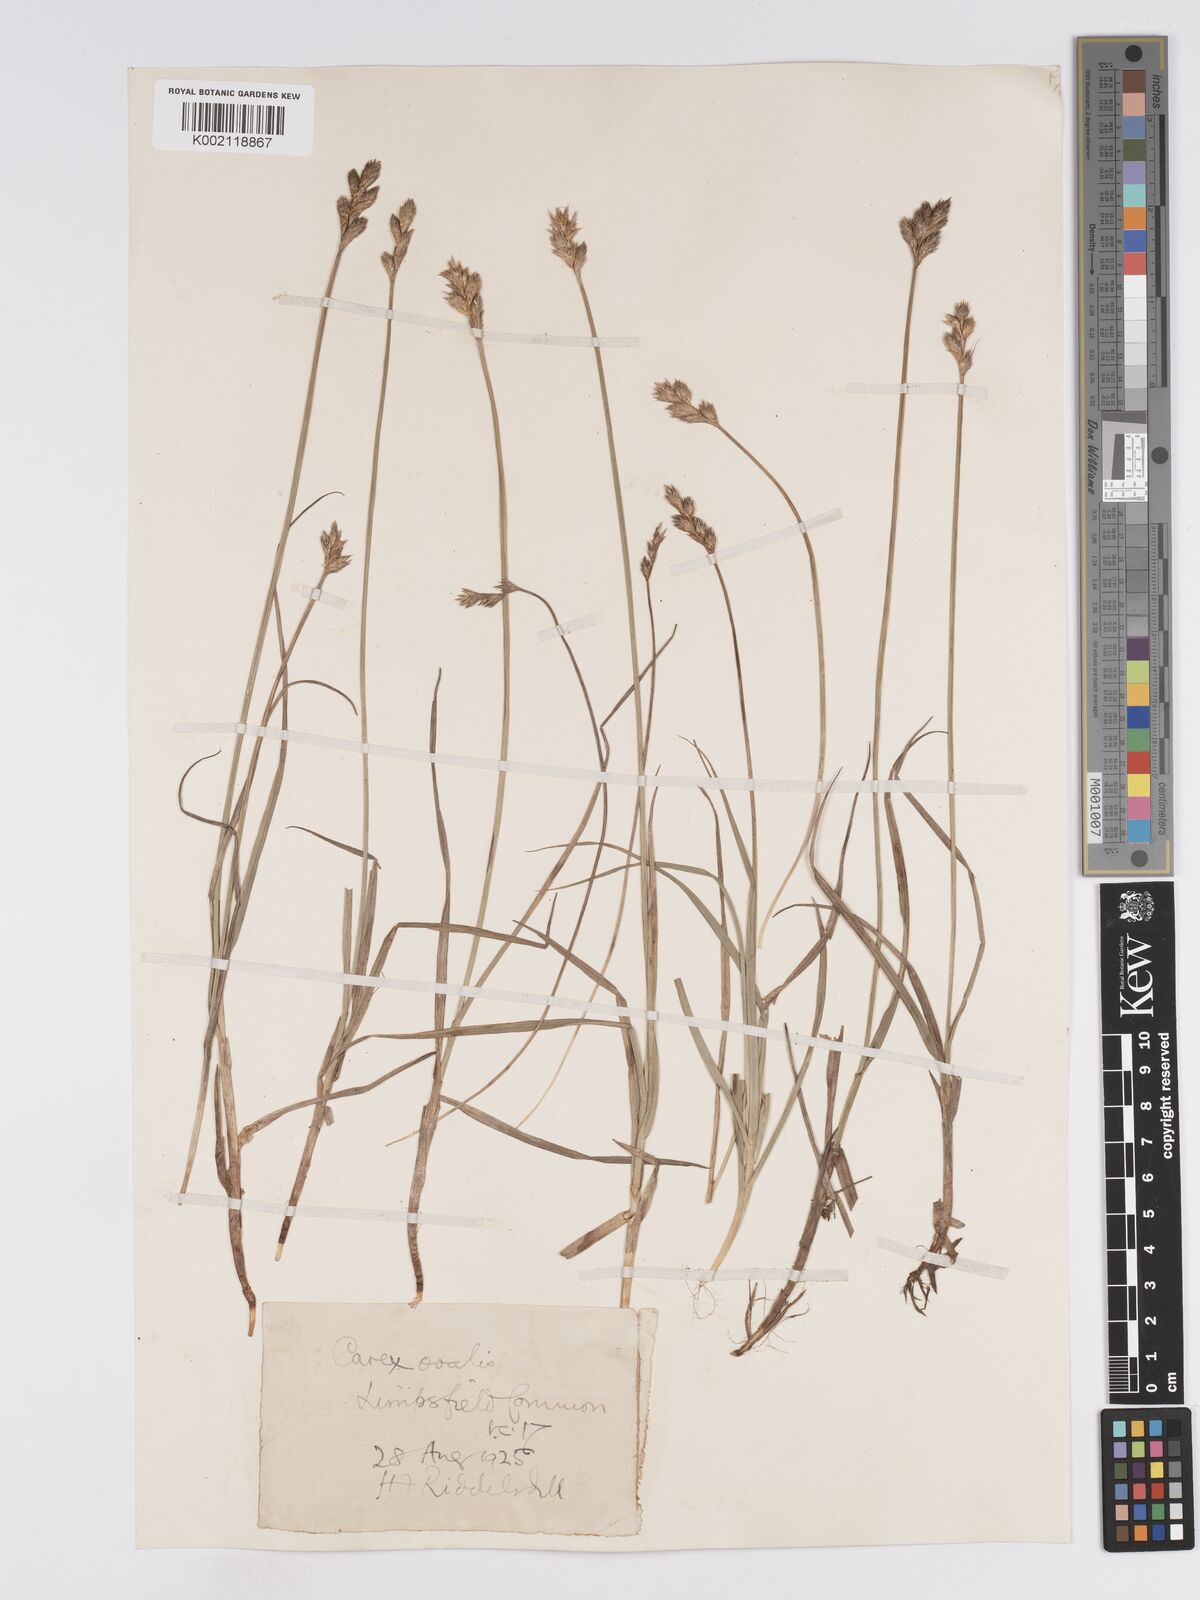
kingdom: Plantae
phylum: Tracheophyta
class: Liliopsida
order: Poales
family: Cyperaceae
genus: Carex
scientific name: Carex leporina
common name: Oval sedge
